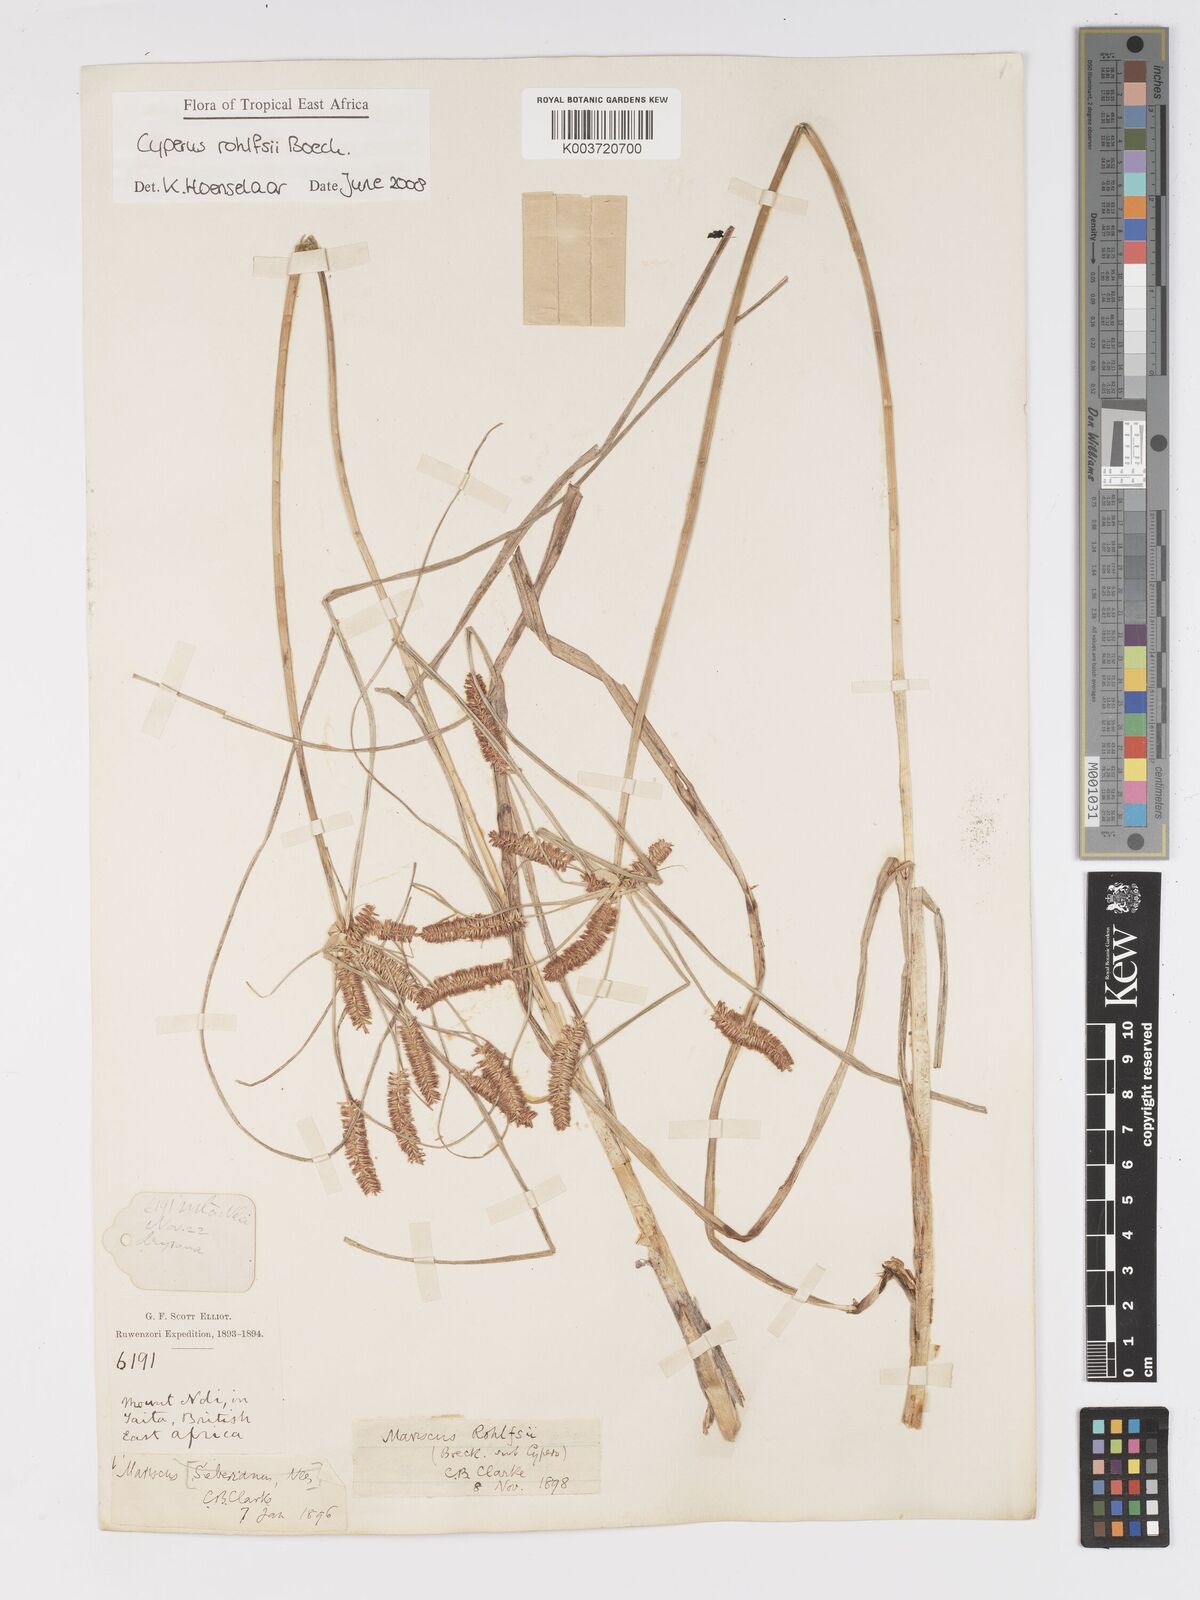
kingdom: Plantae
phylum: Tracheophyta
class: Liliopsida
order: Poales
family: Cyperaceae
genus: Cyperus
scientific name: Cyperus rohlfsii
